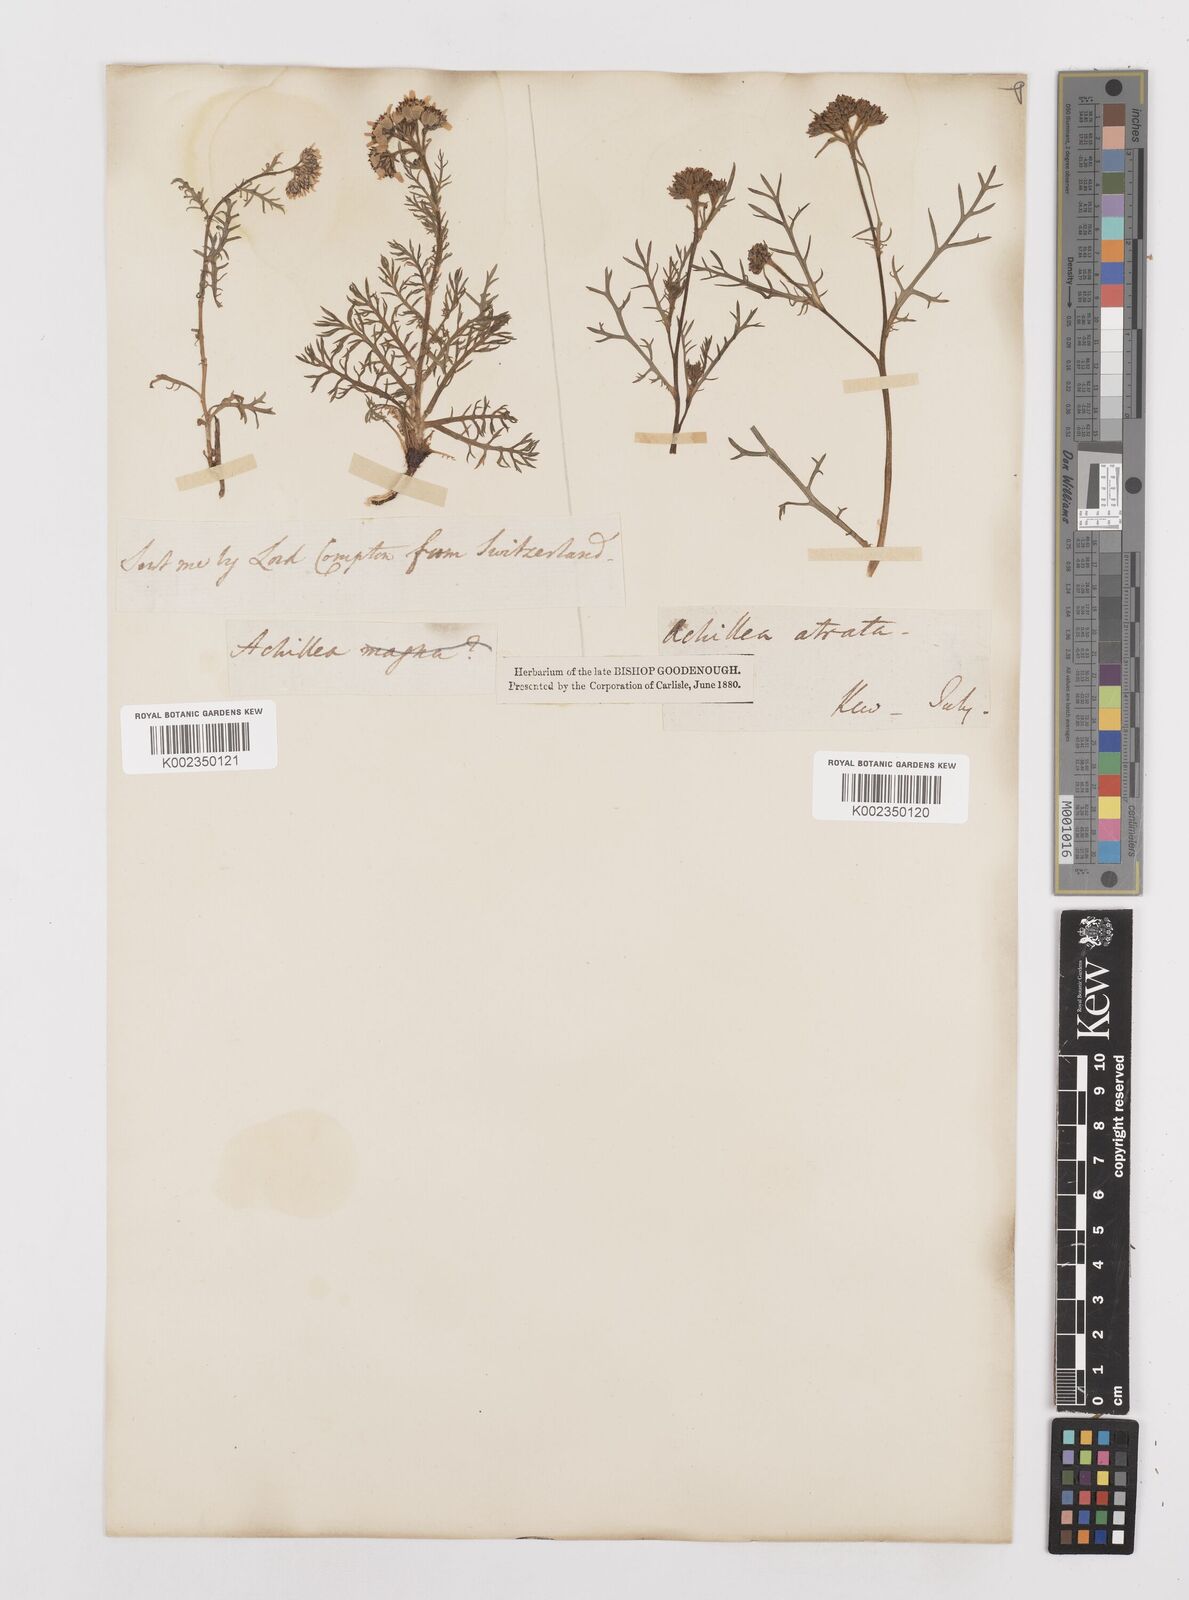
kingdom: Plantae
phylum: Tracheophyta
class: Magnoliopsida
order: Asterales
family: Asteraceae
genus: Achillea
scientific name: Achillea atrata
